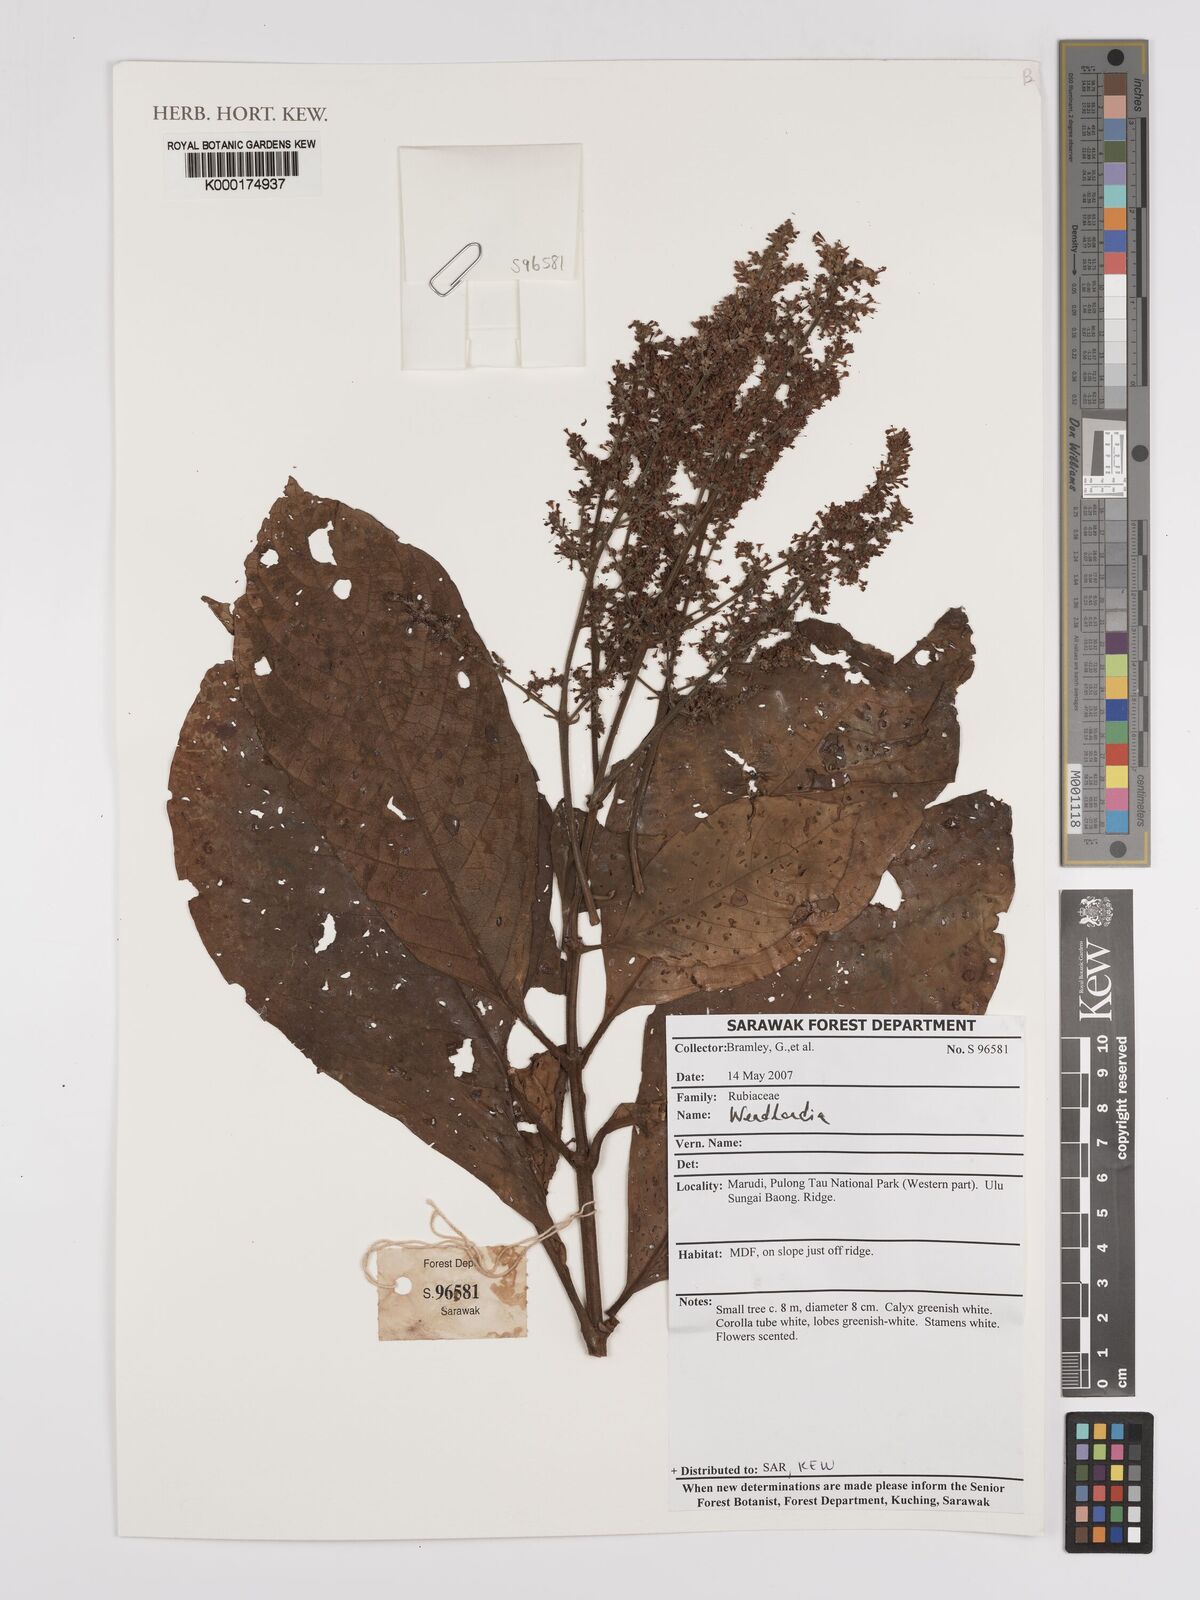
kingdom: Plantae
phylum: Tracheophyta
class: Magnoliopsida
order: Gentianales
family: Rubiaceae
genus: Wendlandia
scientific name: Wendlandia
